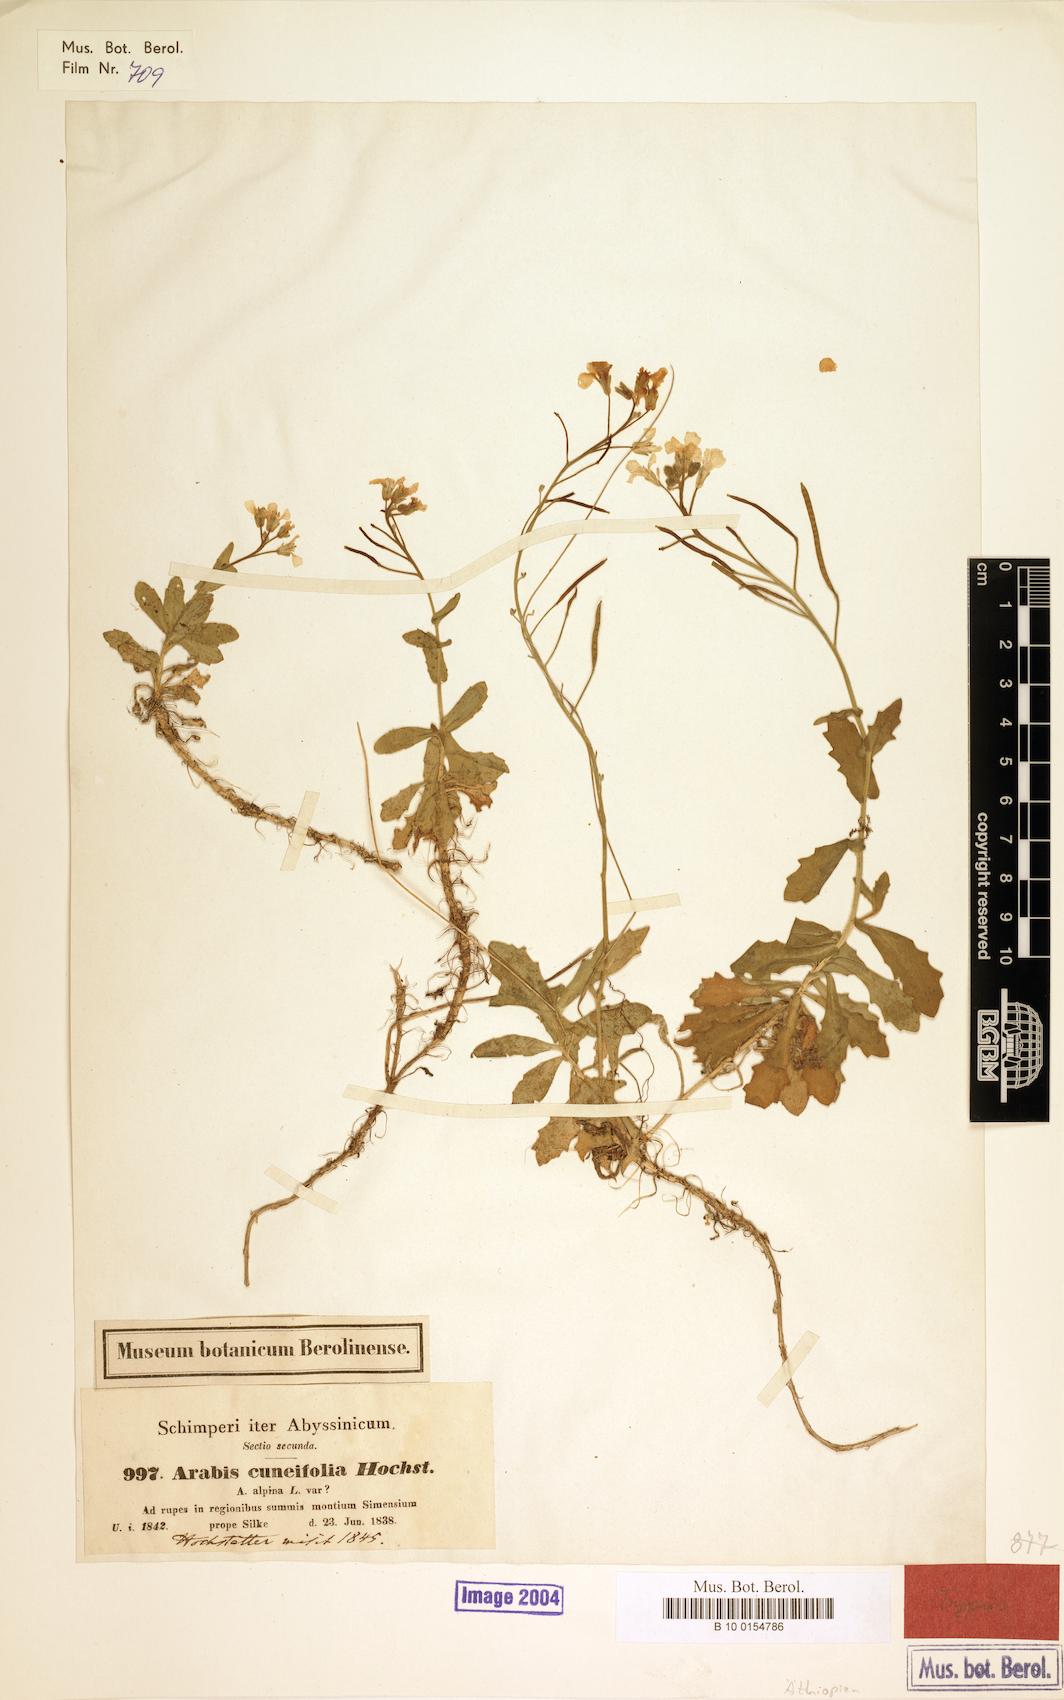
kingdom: Plantae
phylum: Tracheophyta
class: Magnoliopsida
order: Brassicales
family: Brassicaceae
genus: Arabis
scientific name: Arabis alpina
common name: Alpine rock-cress
